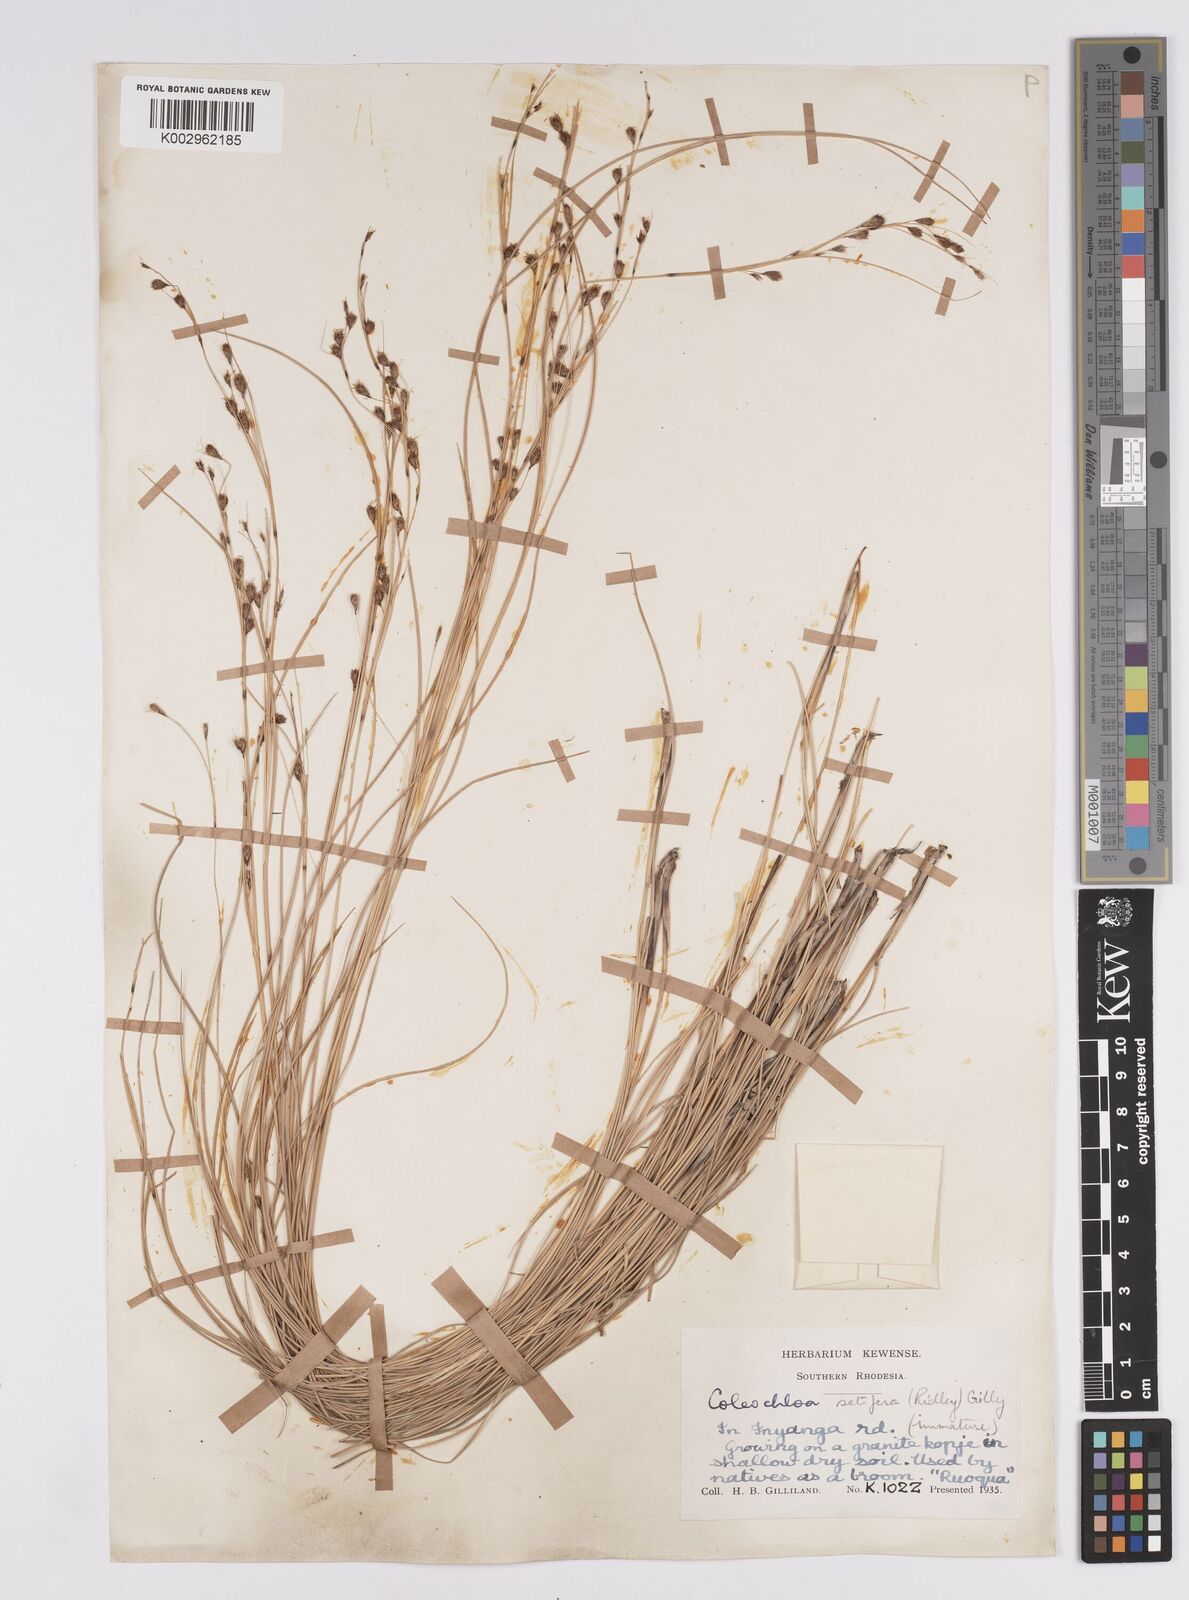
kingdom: Plantae
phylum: Tracheophyta
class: Liliopsida
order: Poales
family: Cyperaceae
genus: Coleochloa
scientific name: Coleochloa setifera
